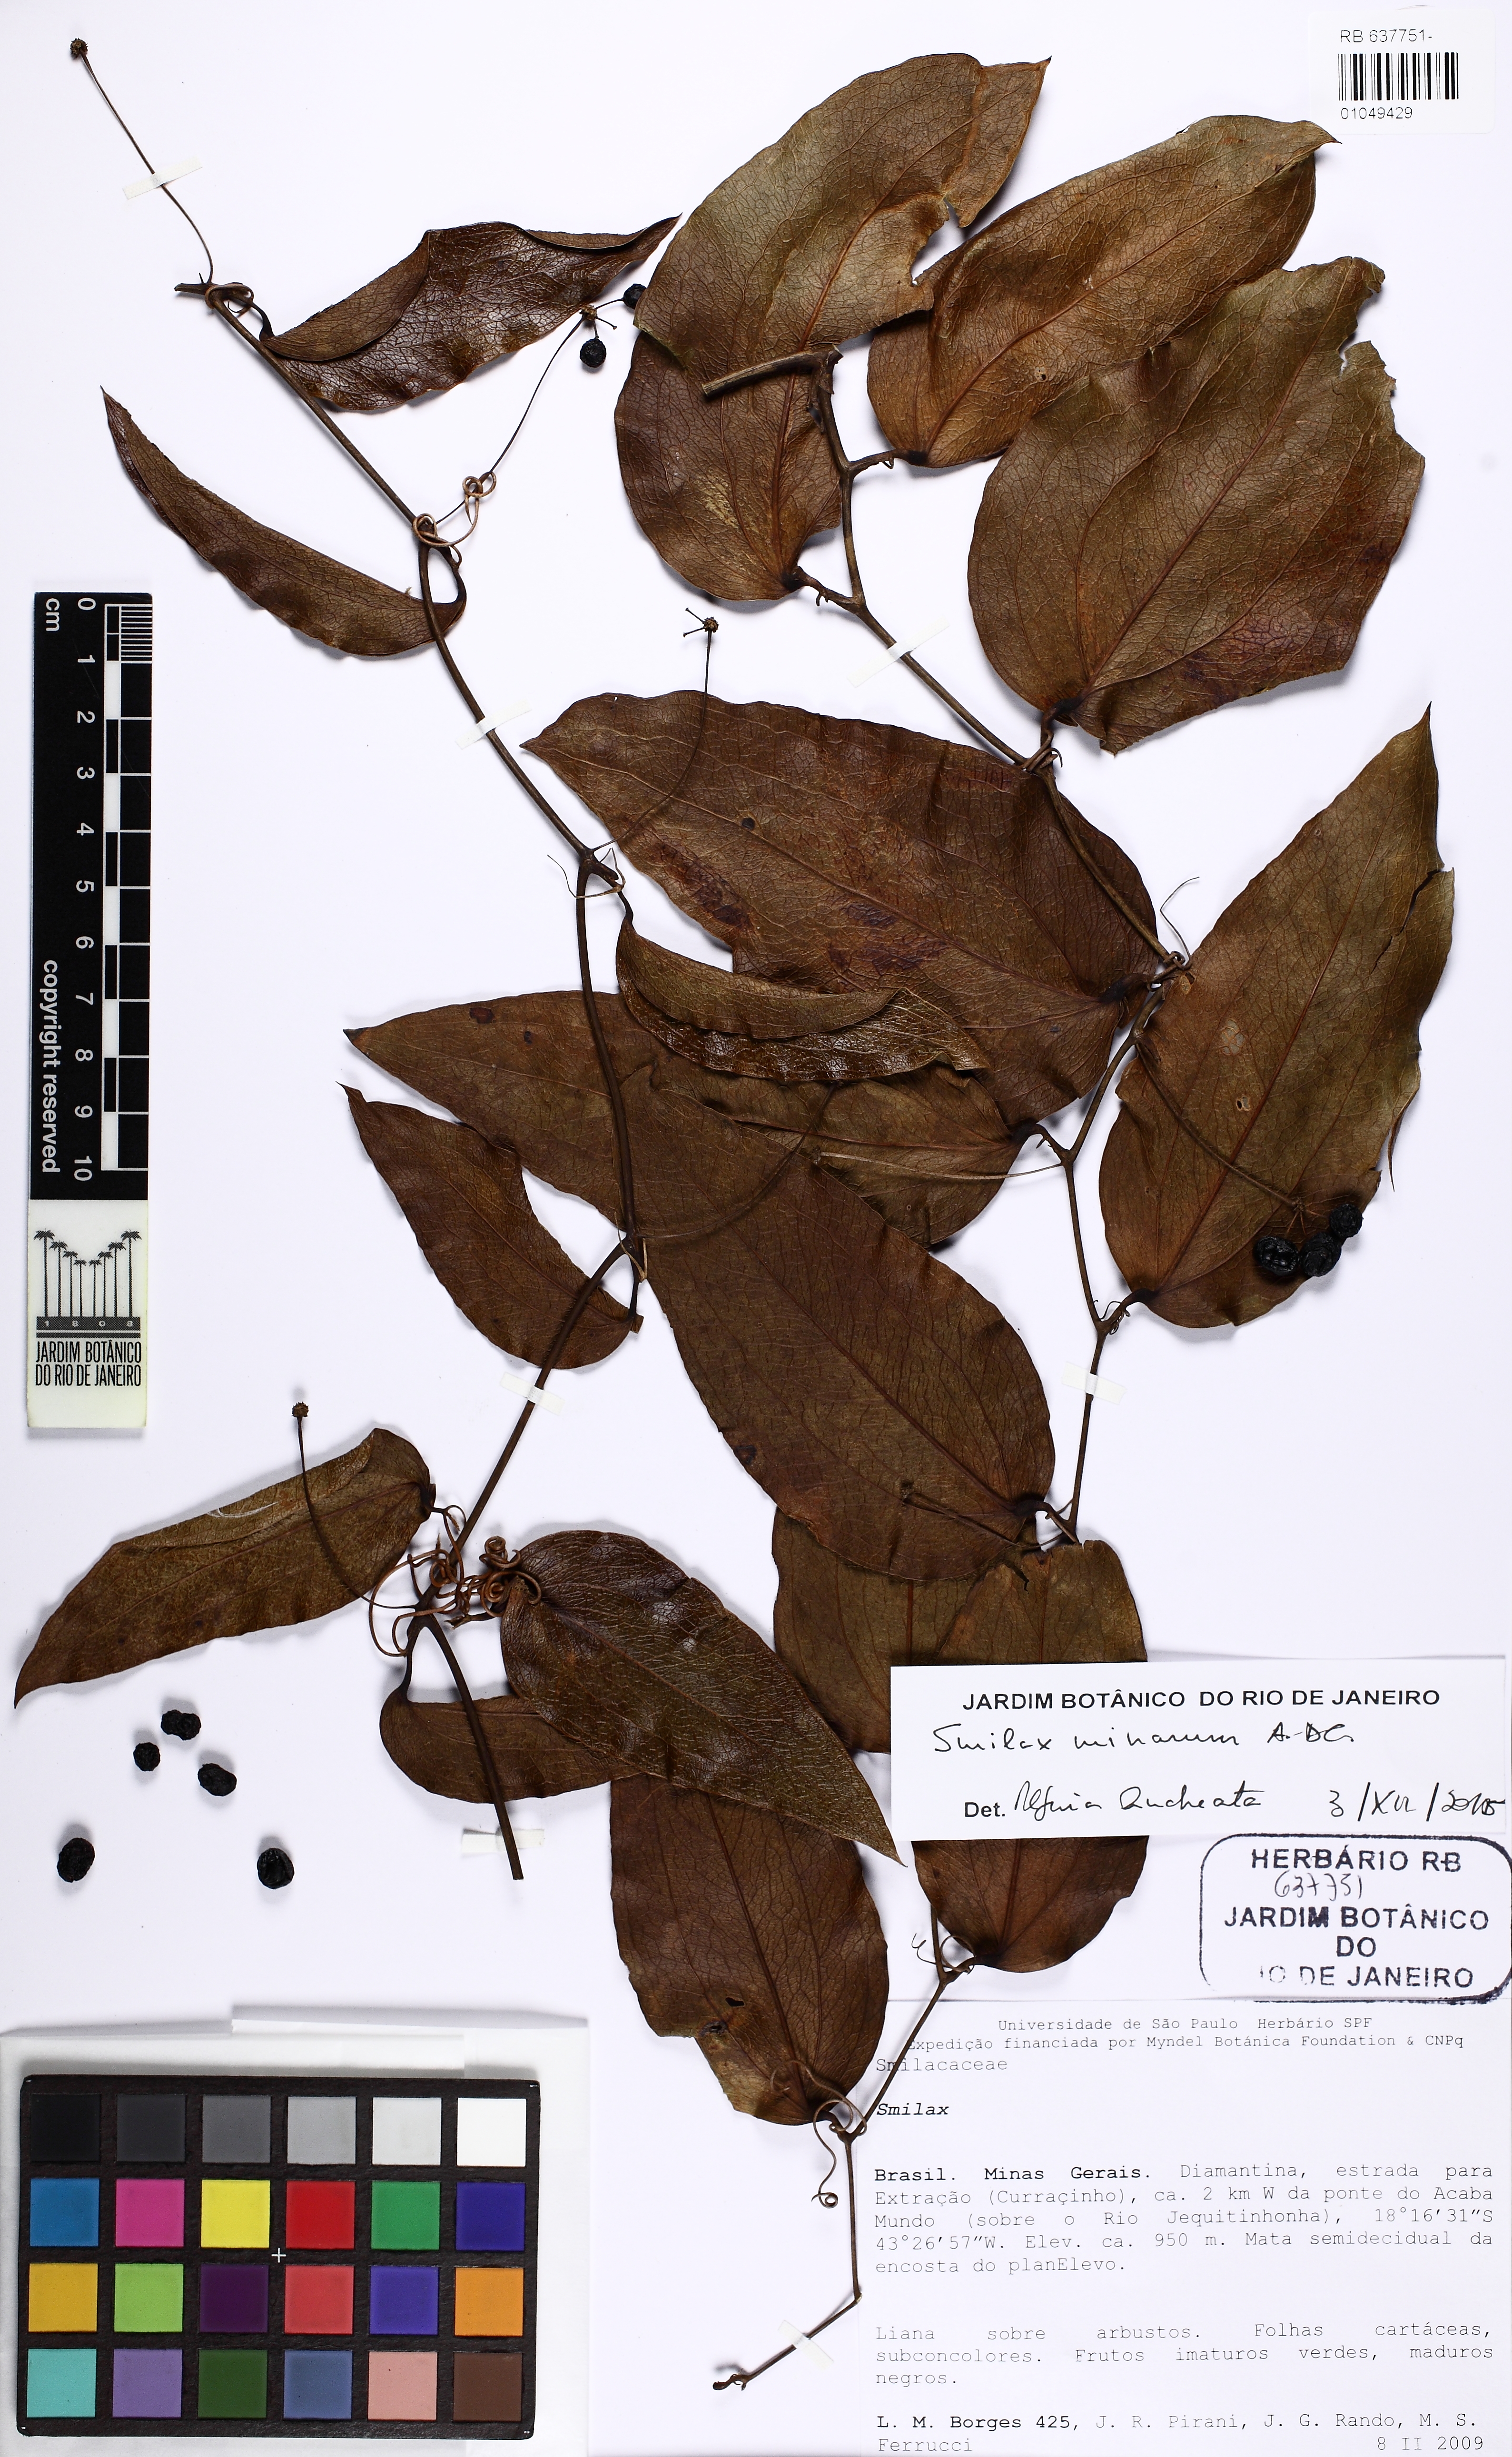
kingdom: Plantae
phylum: Tracheophyta
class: Liliopsida
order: Liliales
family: Smilacaceae
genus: Smilax
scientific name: Smilax minarum
